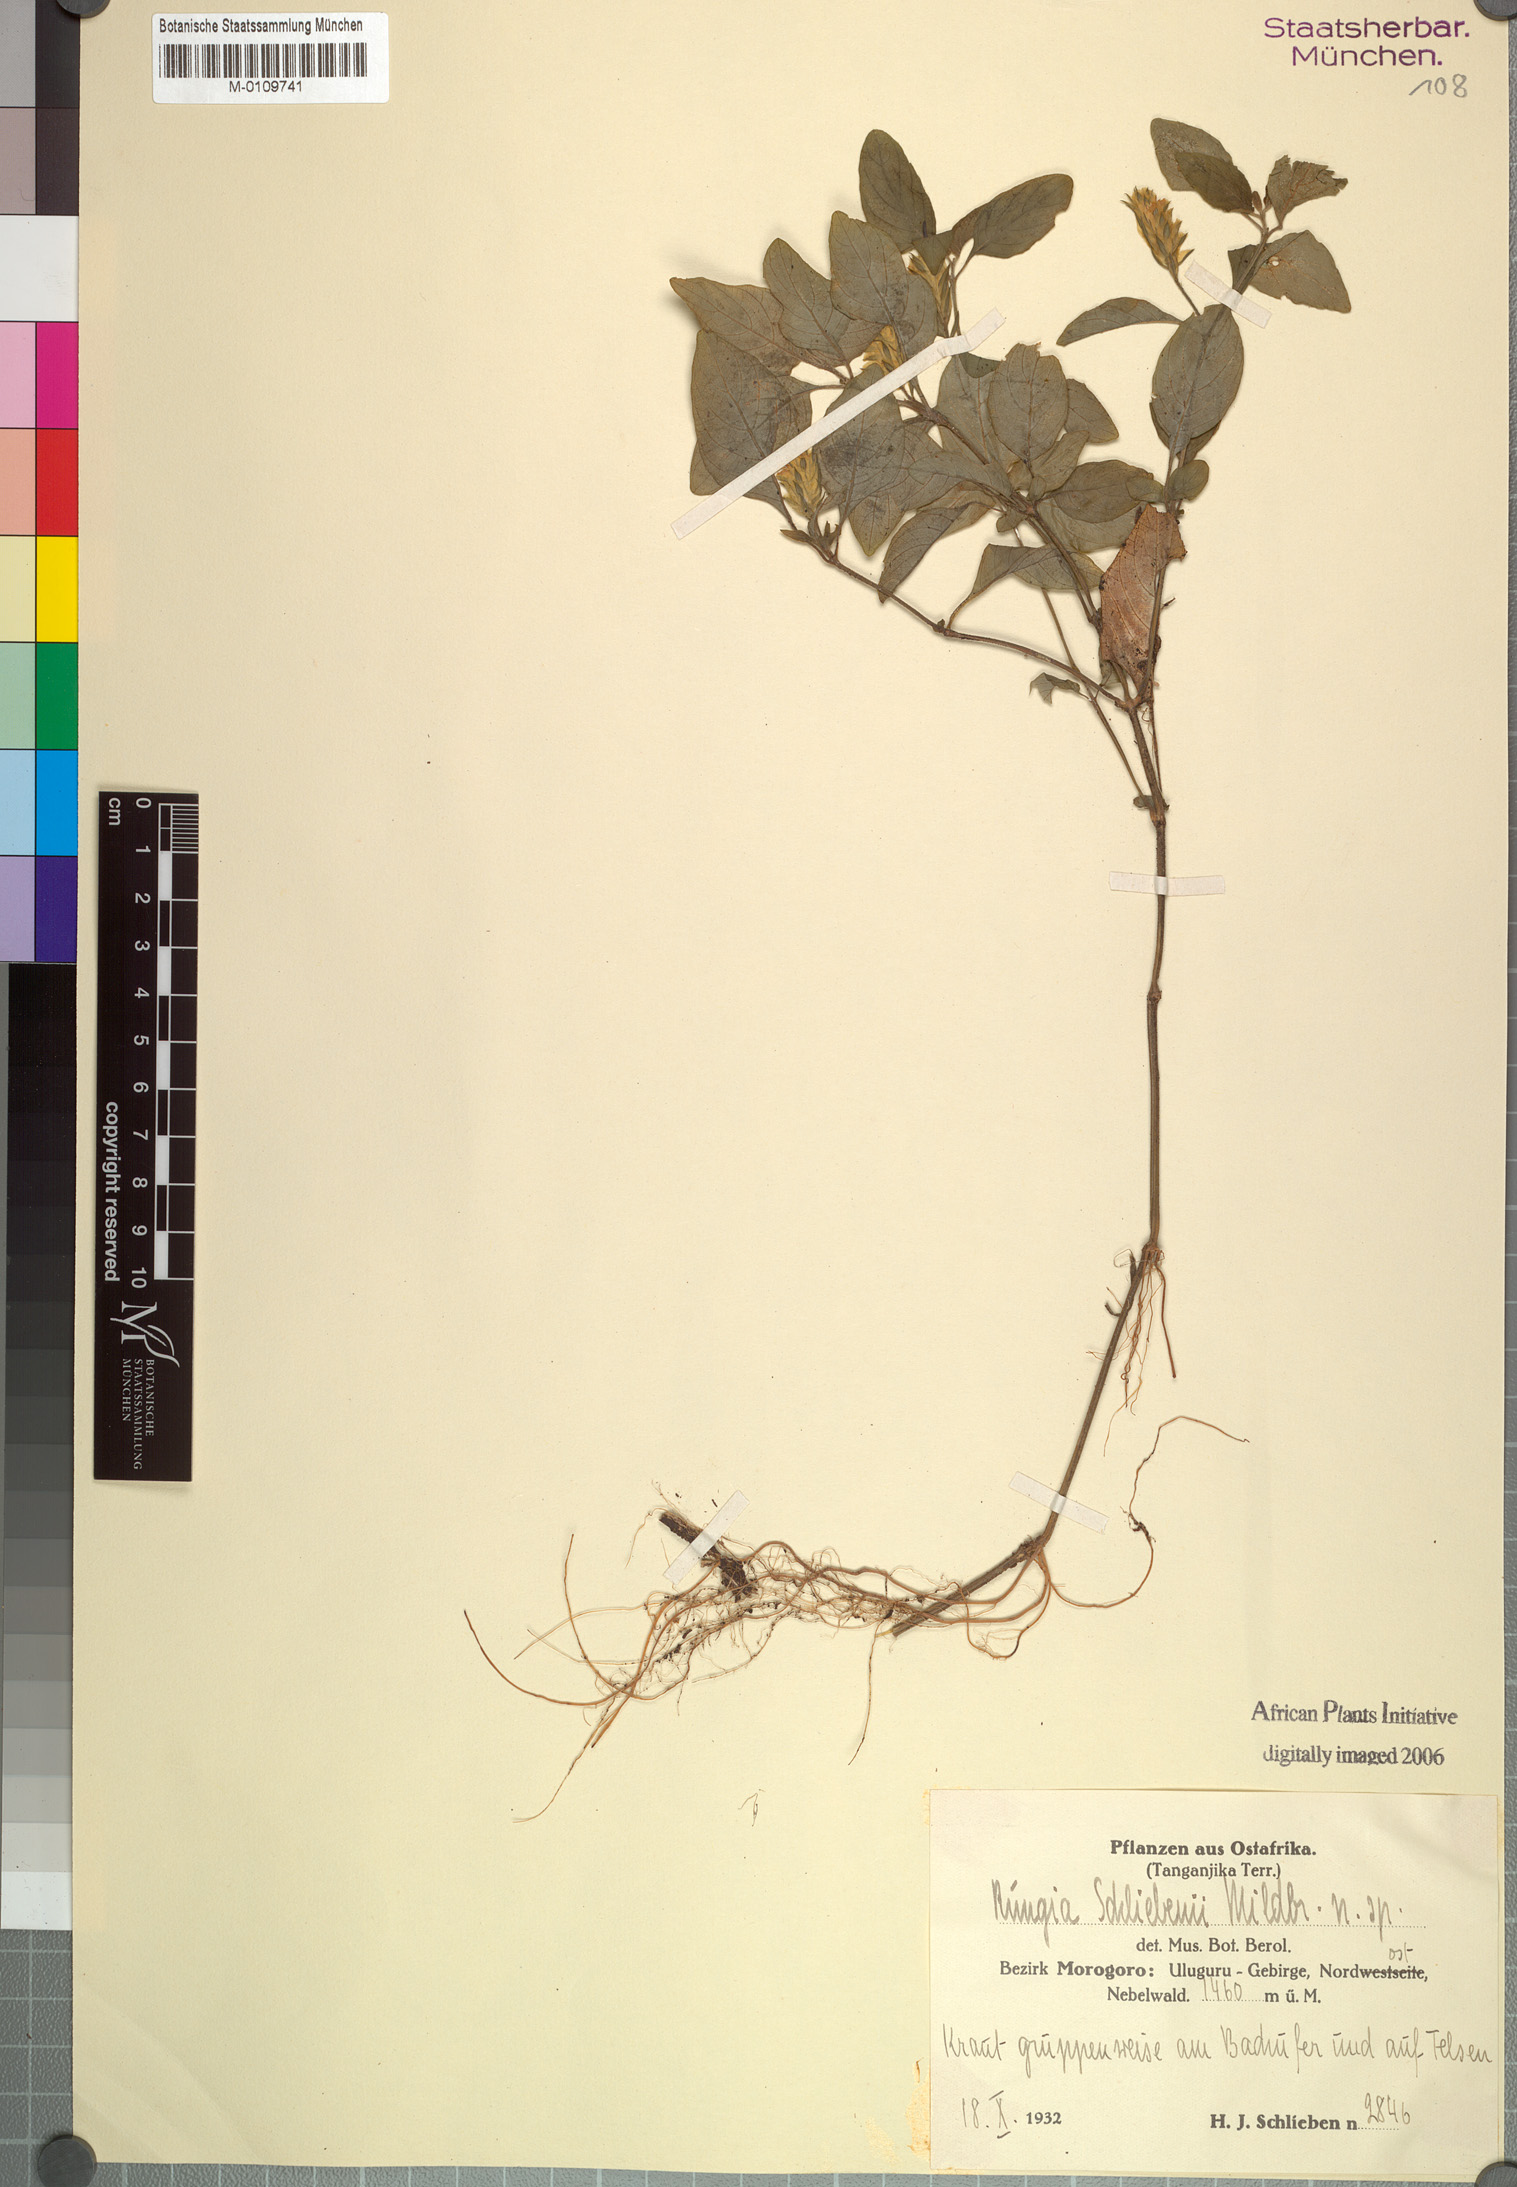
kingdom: Plantae
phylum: Tracheophyta
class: Magnoliopsida
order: Lamiales
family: Acanthaceae
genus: Rungia
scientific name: Rungia schliebenii
